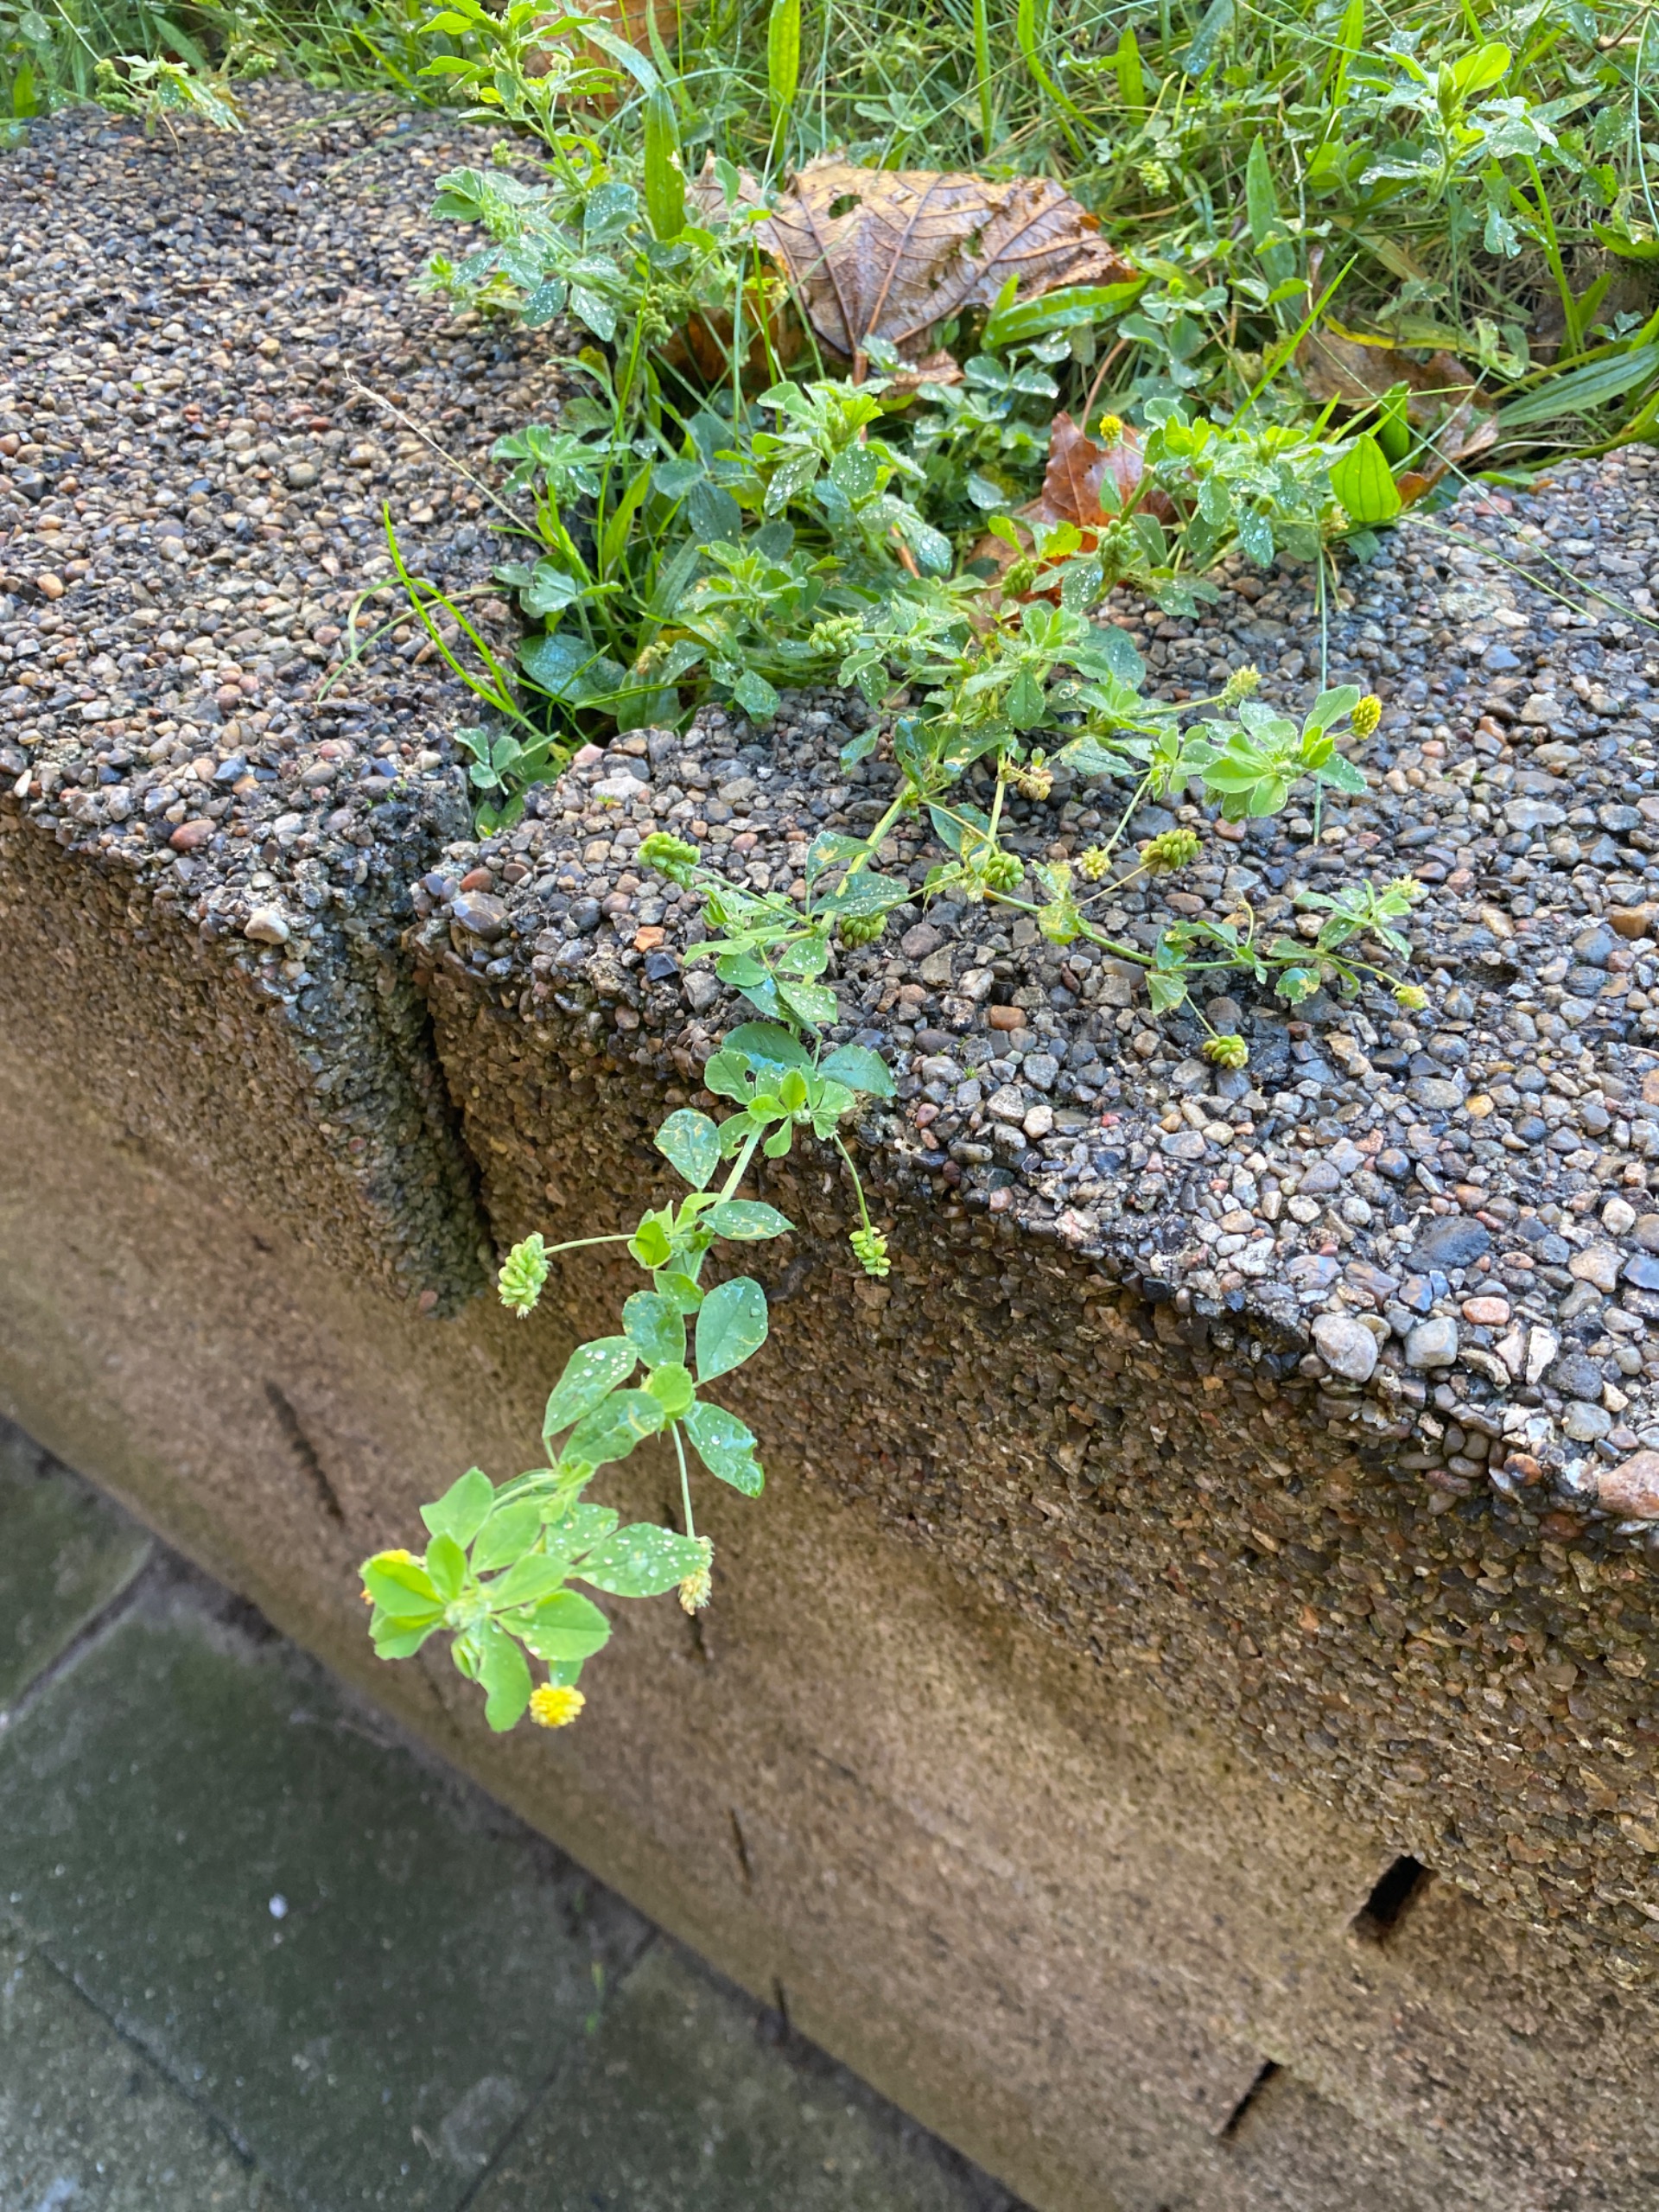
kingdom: Plantae
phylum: Tracheophyta
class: Magnoliopsida
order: Fabales
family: Fabaceae
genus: Medicago
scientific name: Medicago lupulina
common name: Humle-sneglebælg
